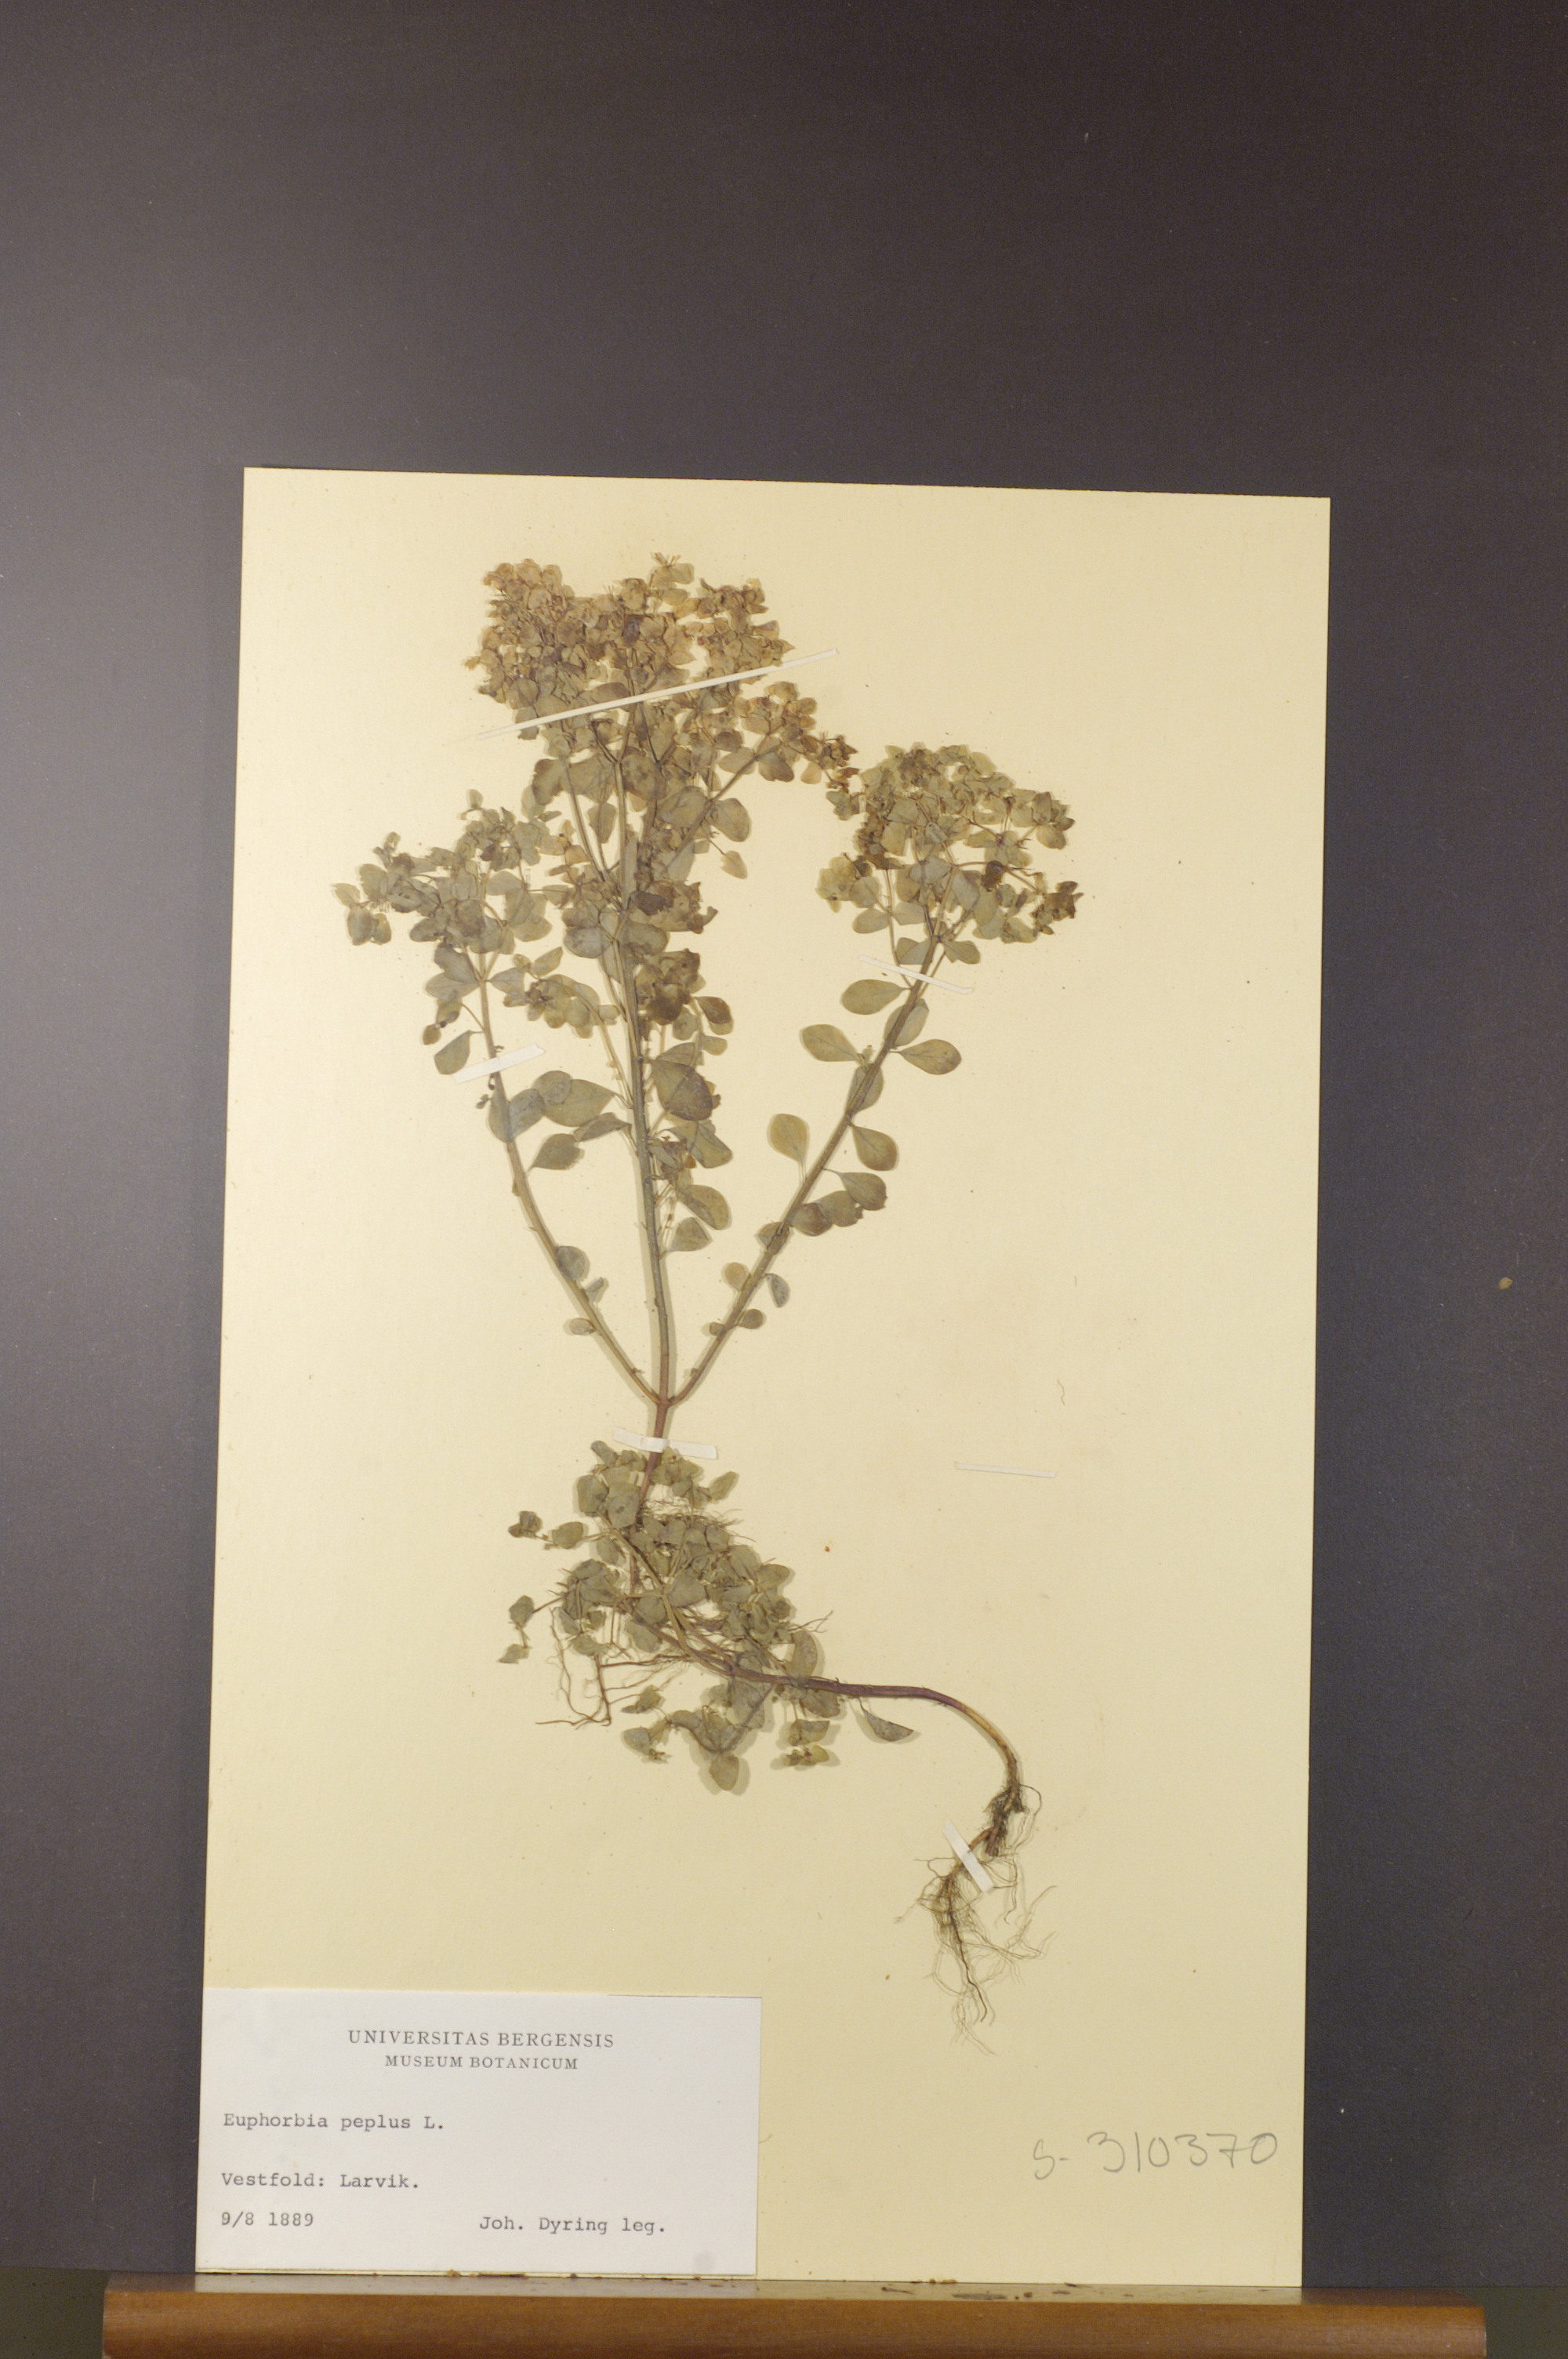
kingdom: Plantae
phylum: Tracheophyta
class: Magnoliopsida
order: Malpighiales
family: Euphorbiaceae
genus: Euphorbia
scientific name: Euphorbia peplus
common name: Petty spurge
